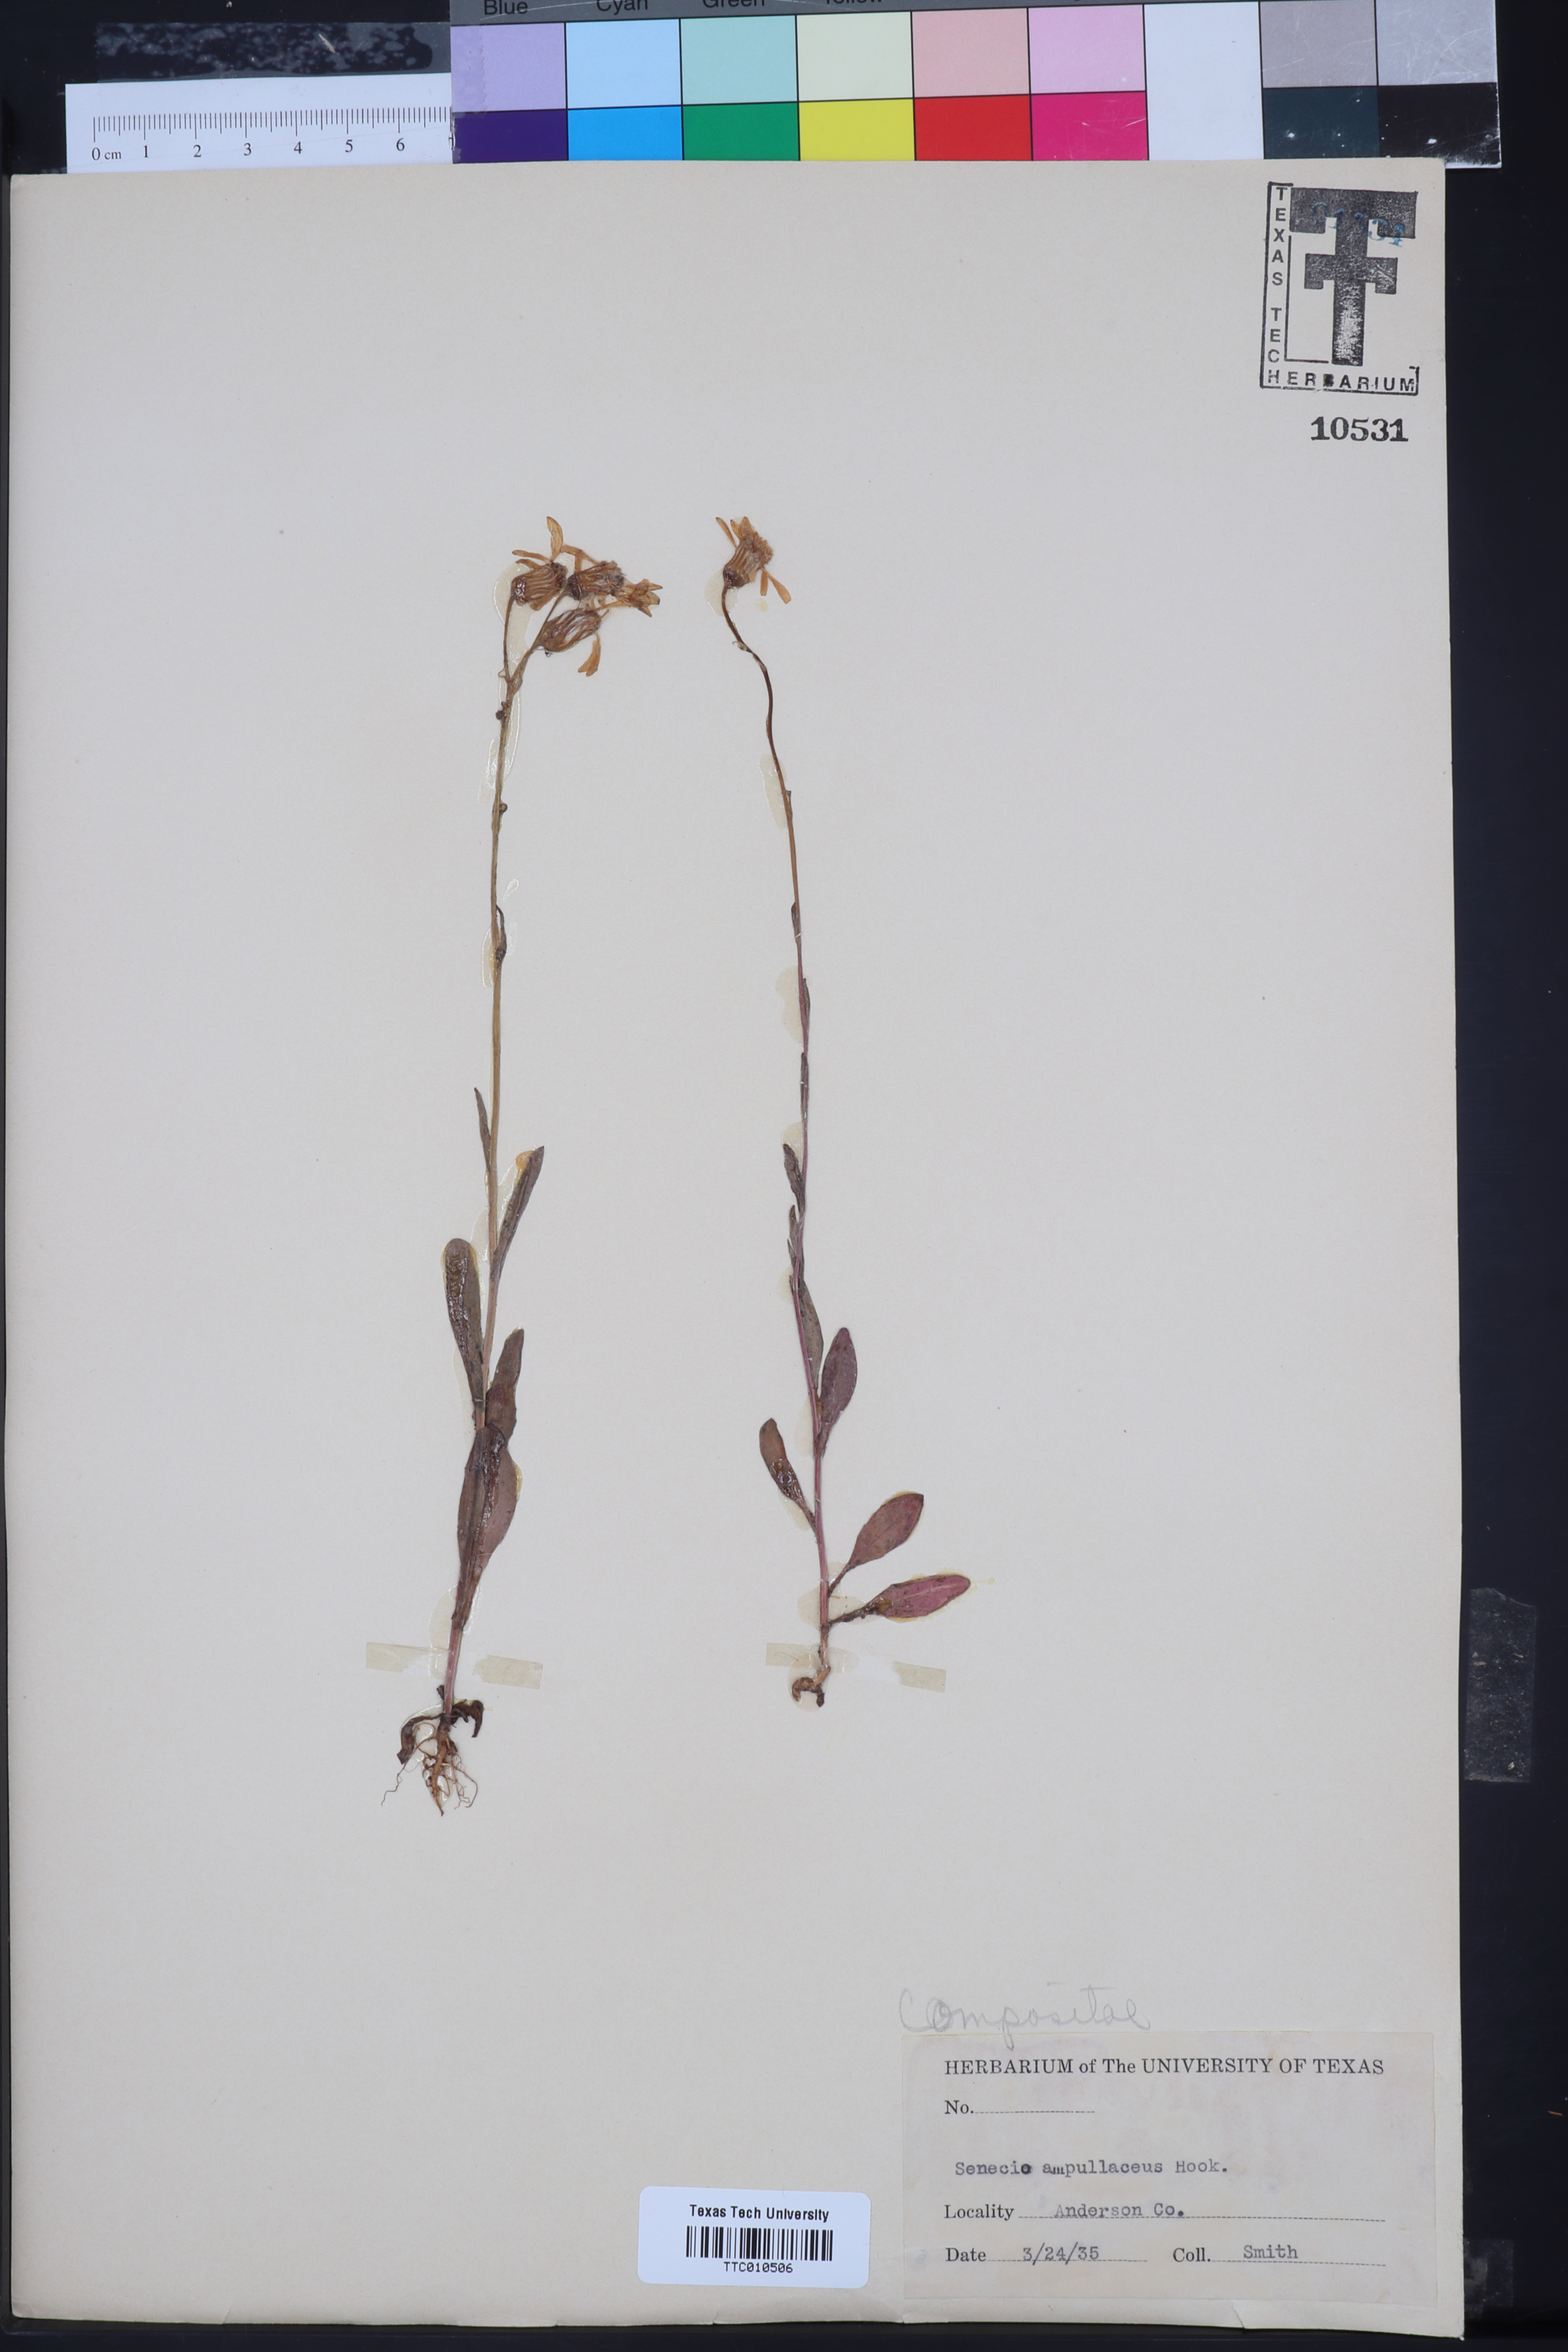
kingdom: Plantae
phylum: Tracheophyta
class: Magnoliopsida
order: Asterales
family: Asteraceae
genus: Senecio
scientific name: Senecio ampullaceus
